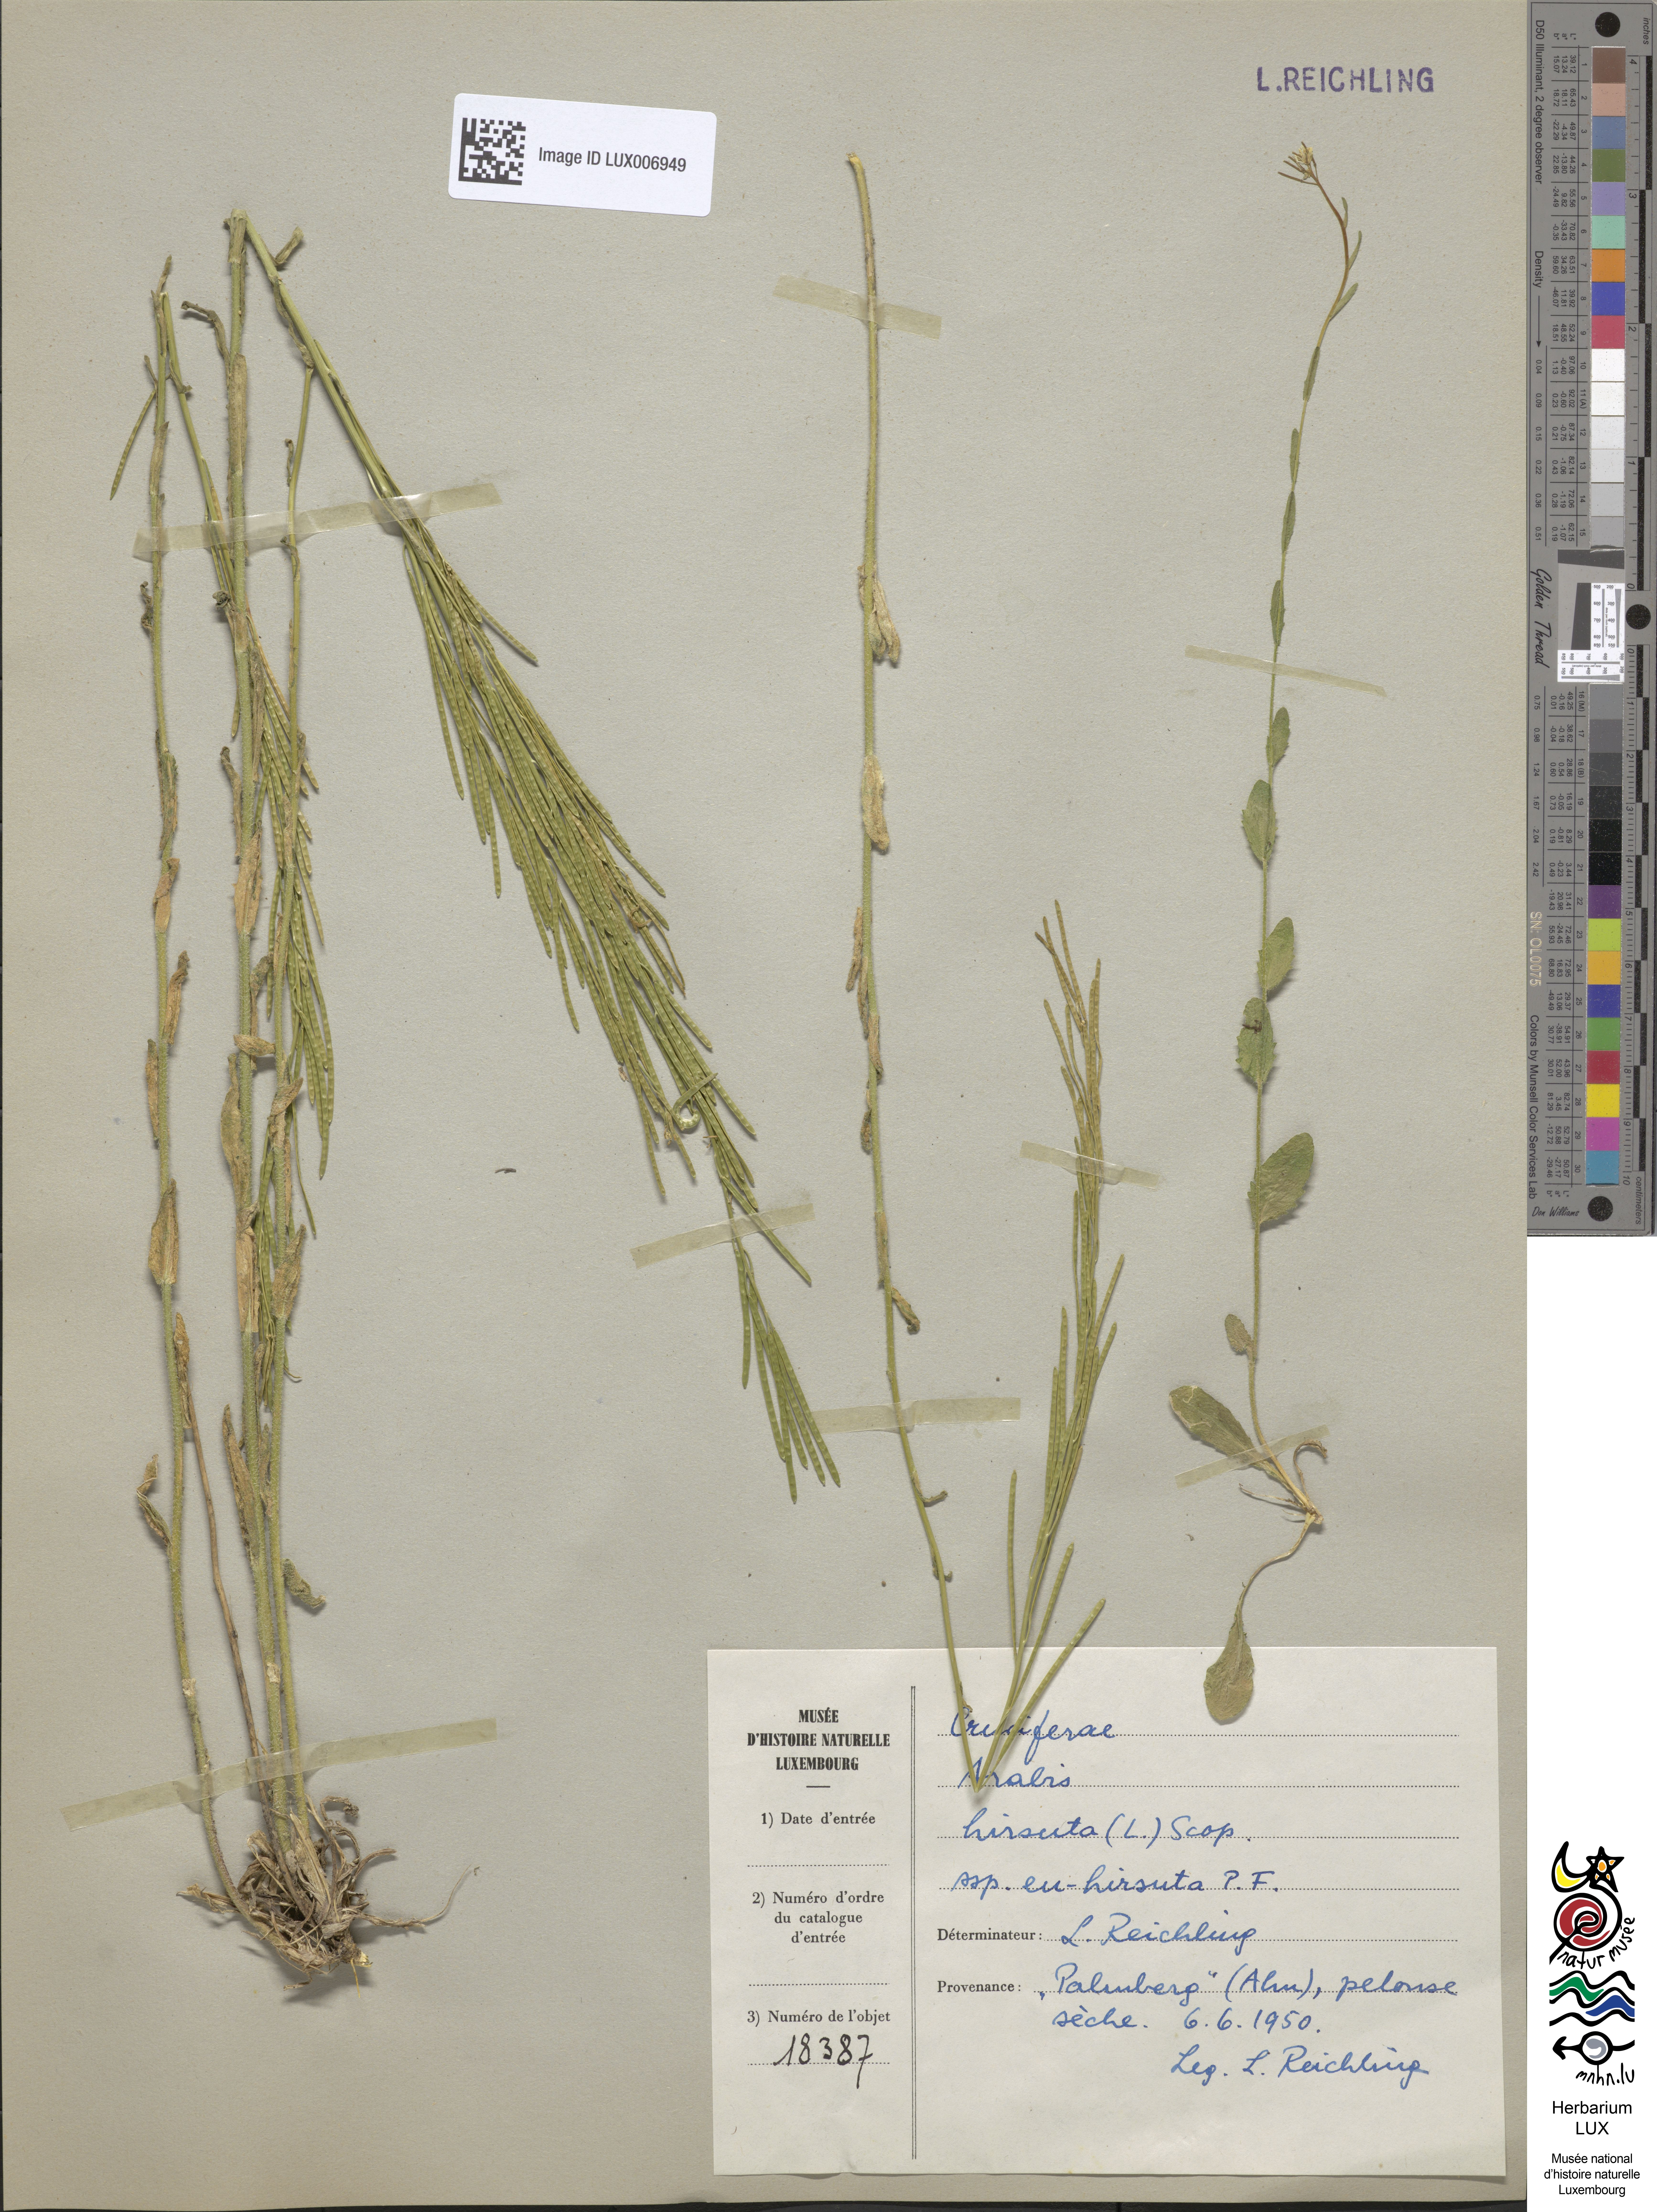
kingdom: Plantae
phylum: Tracheophyta
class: Magnoliopsida
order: Brassicales
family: Brassicaceae
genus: Arabis
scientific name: Arabis hirsuta
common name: Hairy rock-cress
